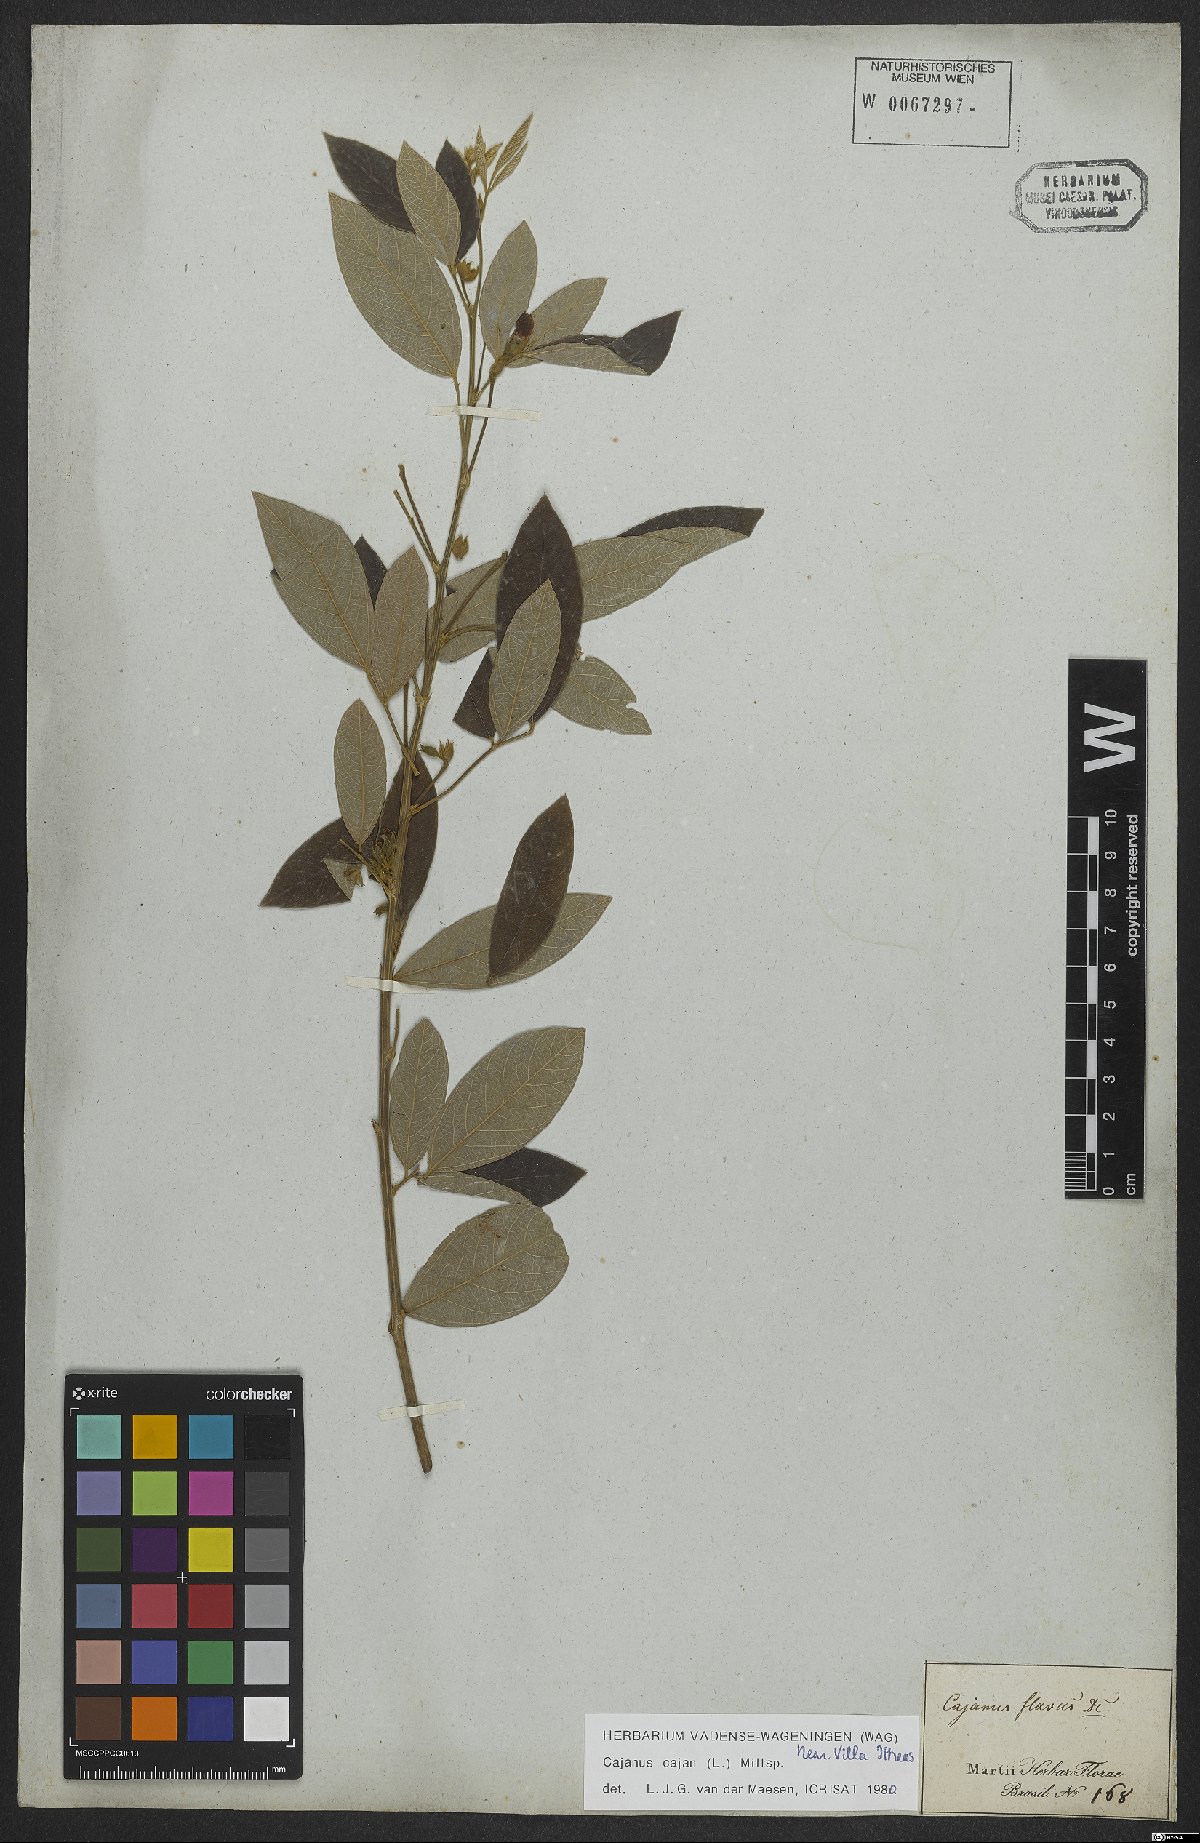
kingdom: Plantae
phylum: Tracheophyta
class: Magnoliopsida
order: Fabales
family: Fabaceae
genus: Cajanus
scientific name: Cajanus cajan
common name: Pigeonpea
